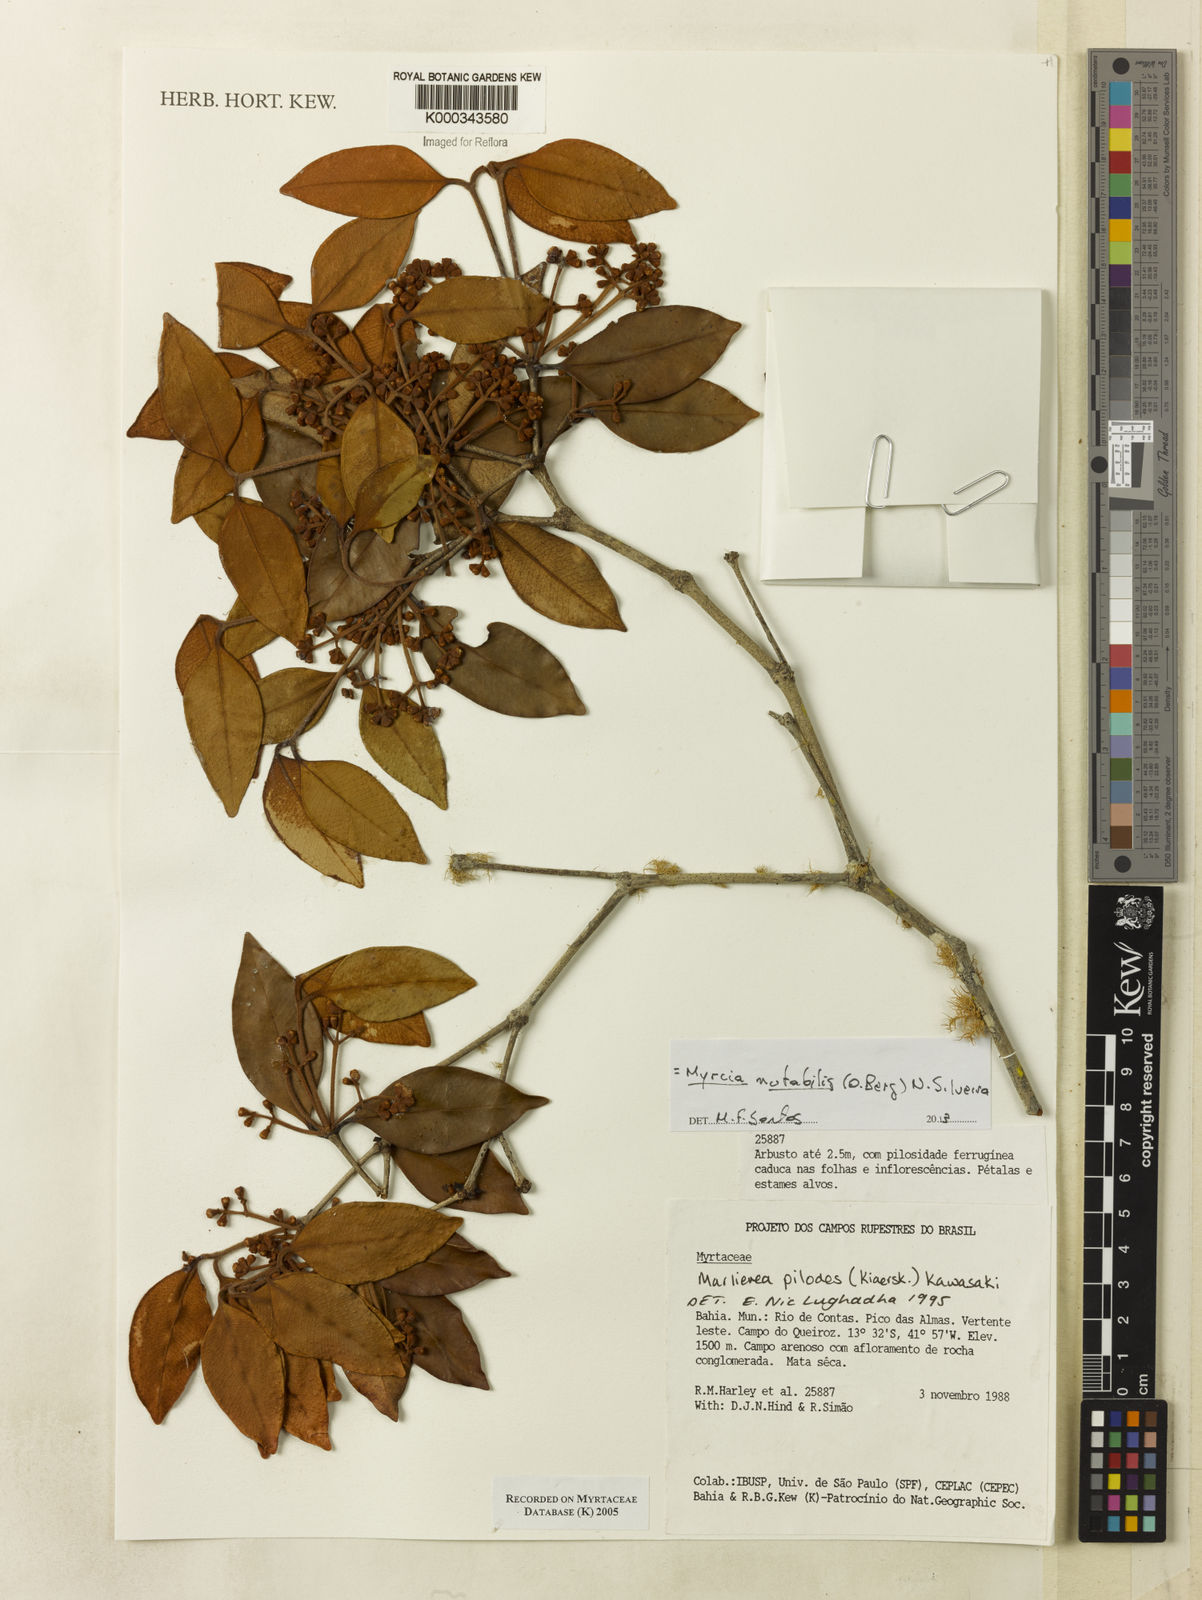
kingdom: Plantae
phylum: Tracheophyta
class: Magnoliopsida
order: Myrtales
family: Myrtaceae
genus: Myrcia
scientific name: Myrcia mutabilis
